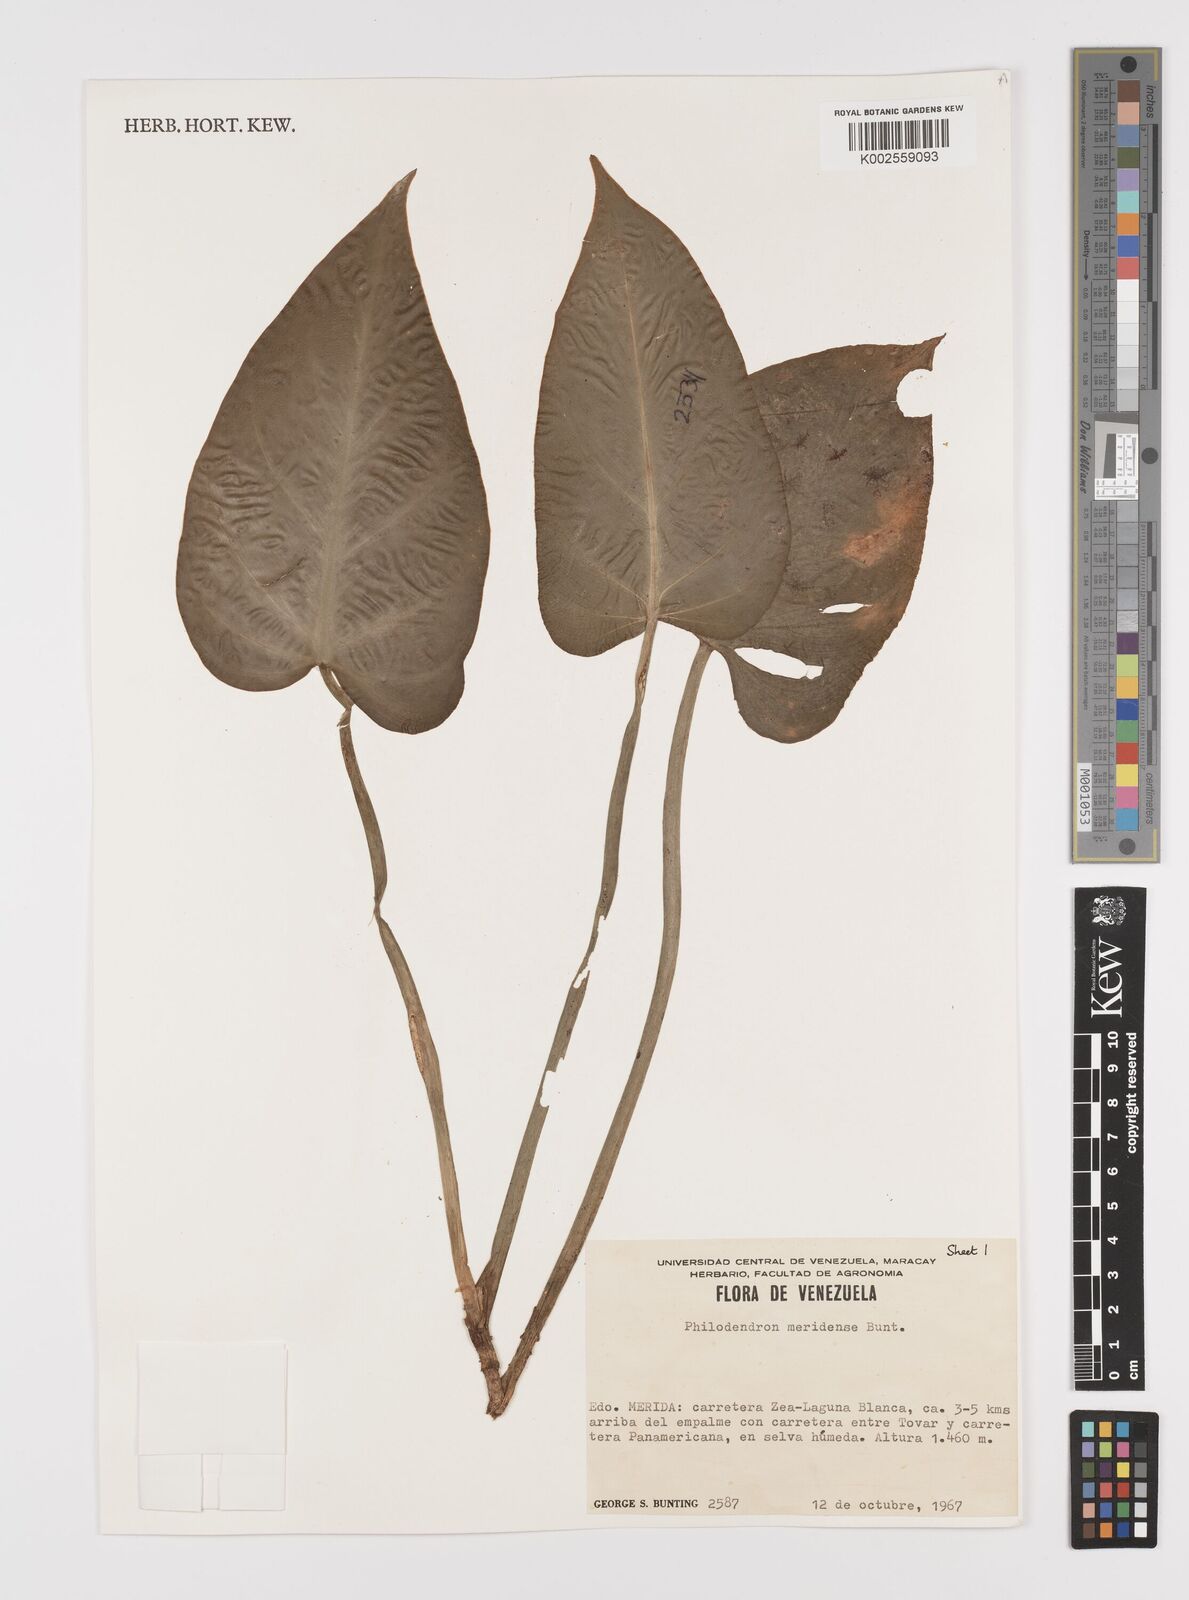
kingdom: Plantae
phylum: Tracheophyta
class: Liliopsida
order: Alismatales
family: Araceae
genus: Philodendron
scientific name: Philodendron meridense
